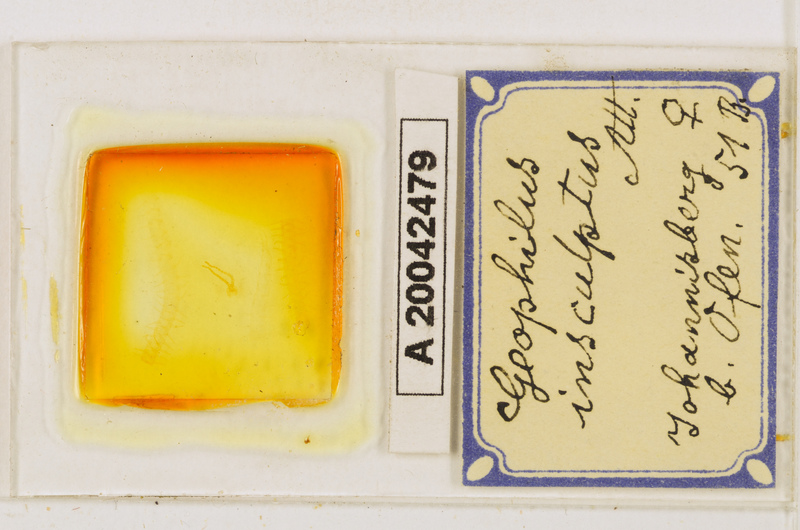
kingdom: Animalia
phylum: Arthropoda
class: Chilopoda
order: Geophilomorpha
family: Geophilidae
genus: Geophilus
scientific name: Geophilus insculptus
